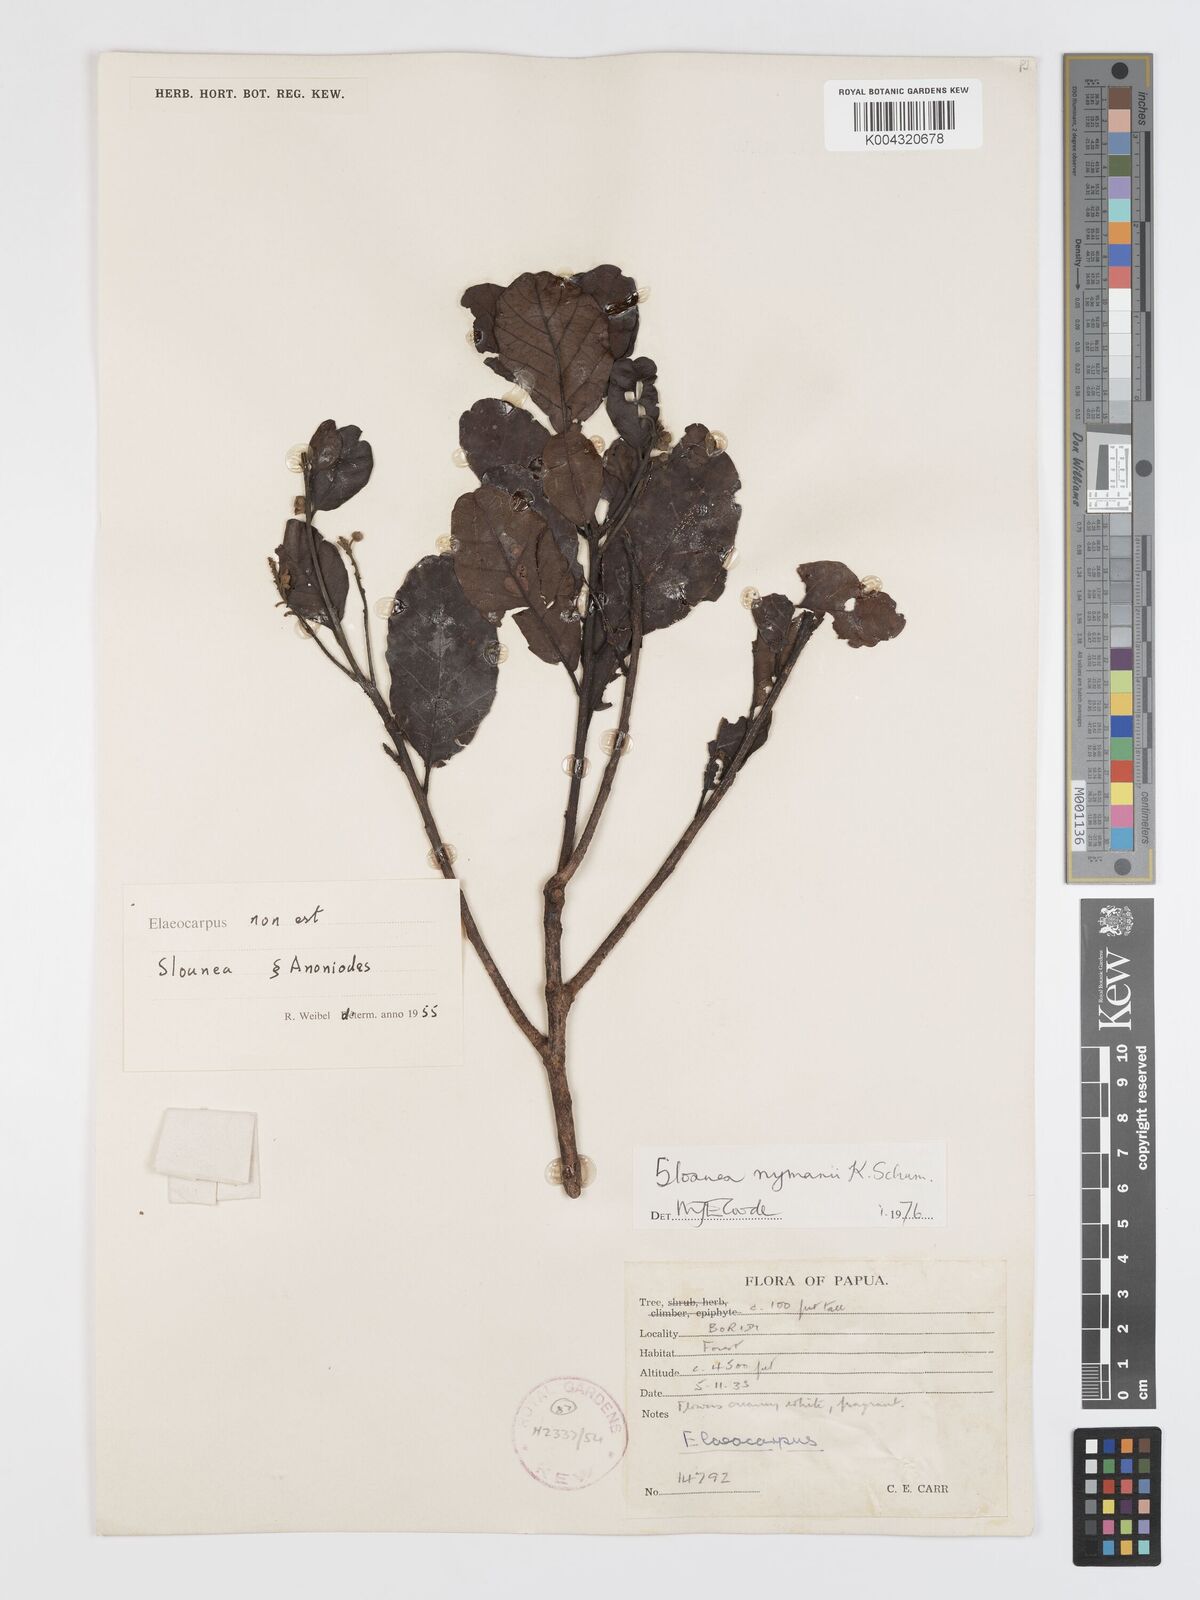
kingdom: Plantae
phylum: Tracheophyta
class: Magnoliopsida
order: Oxalidales
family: Elaeocarpaceae
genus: Sloanea
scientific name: Sloanea nymanii
